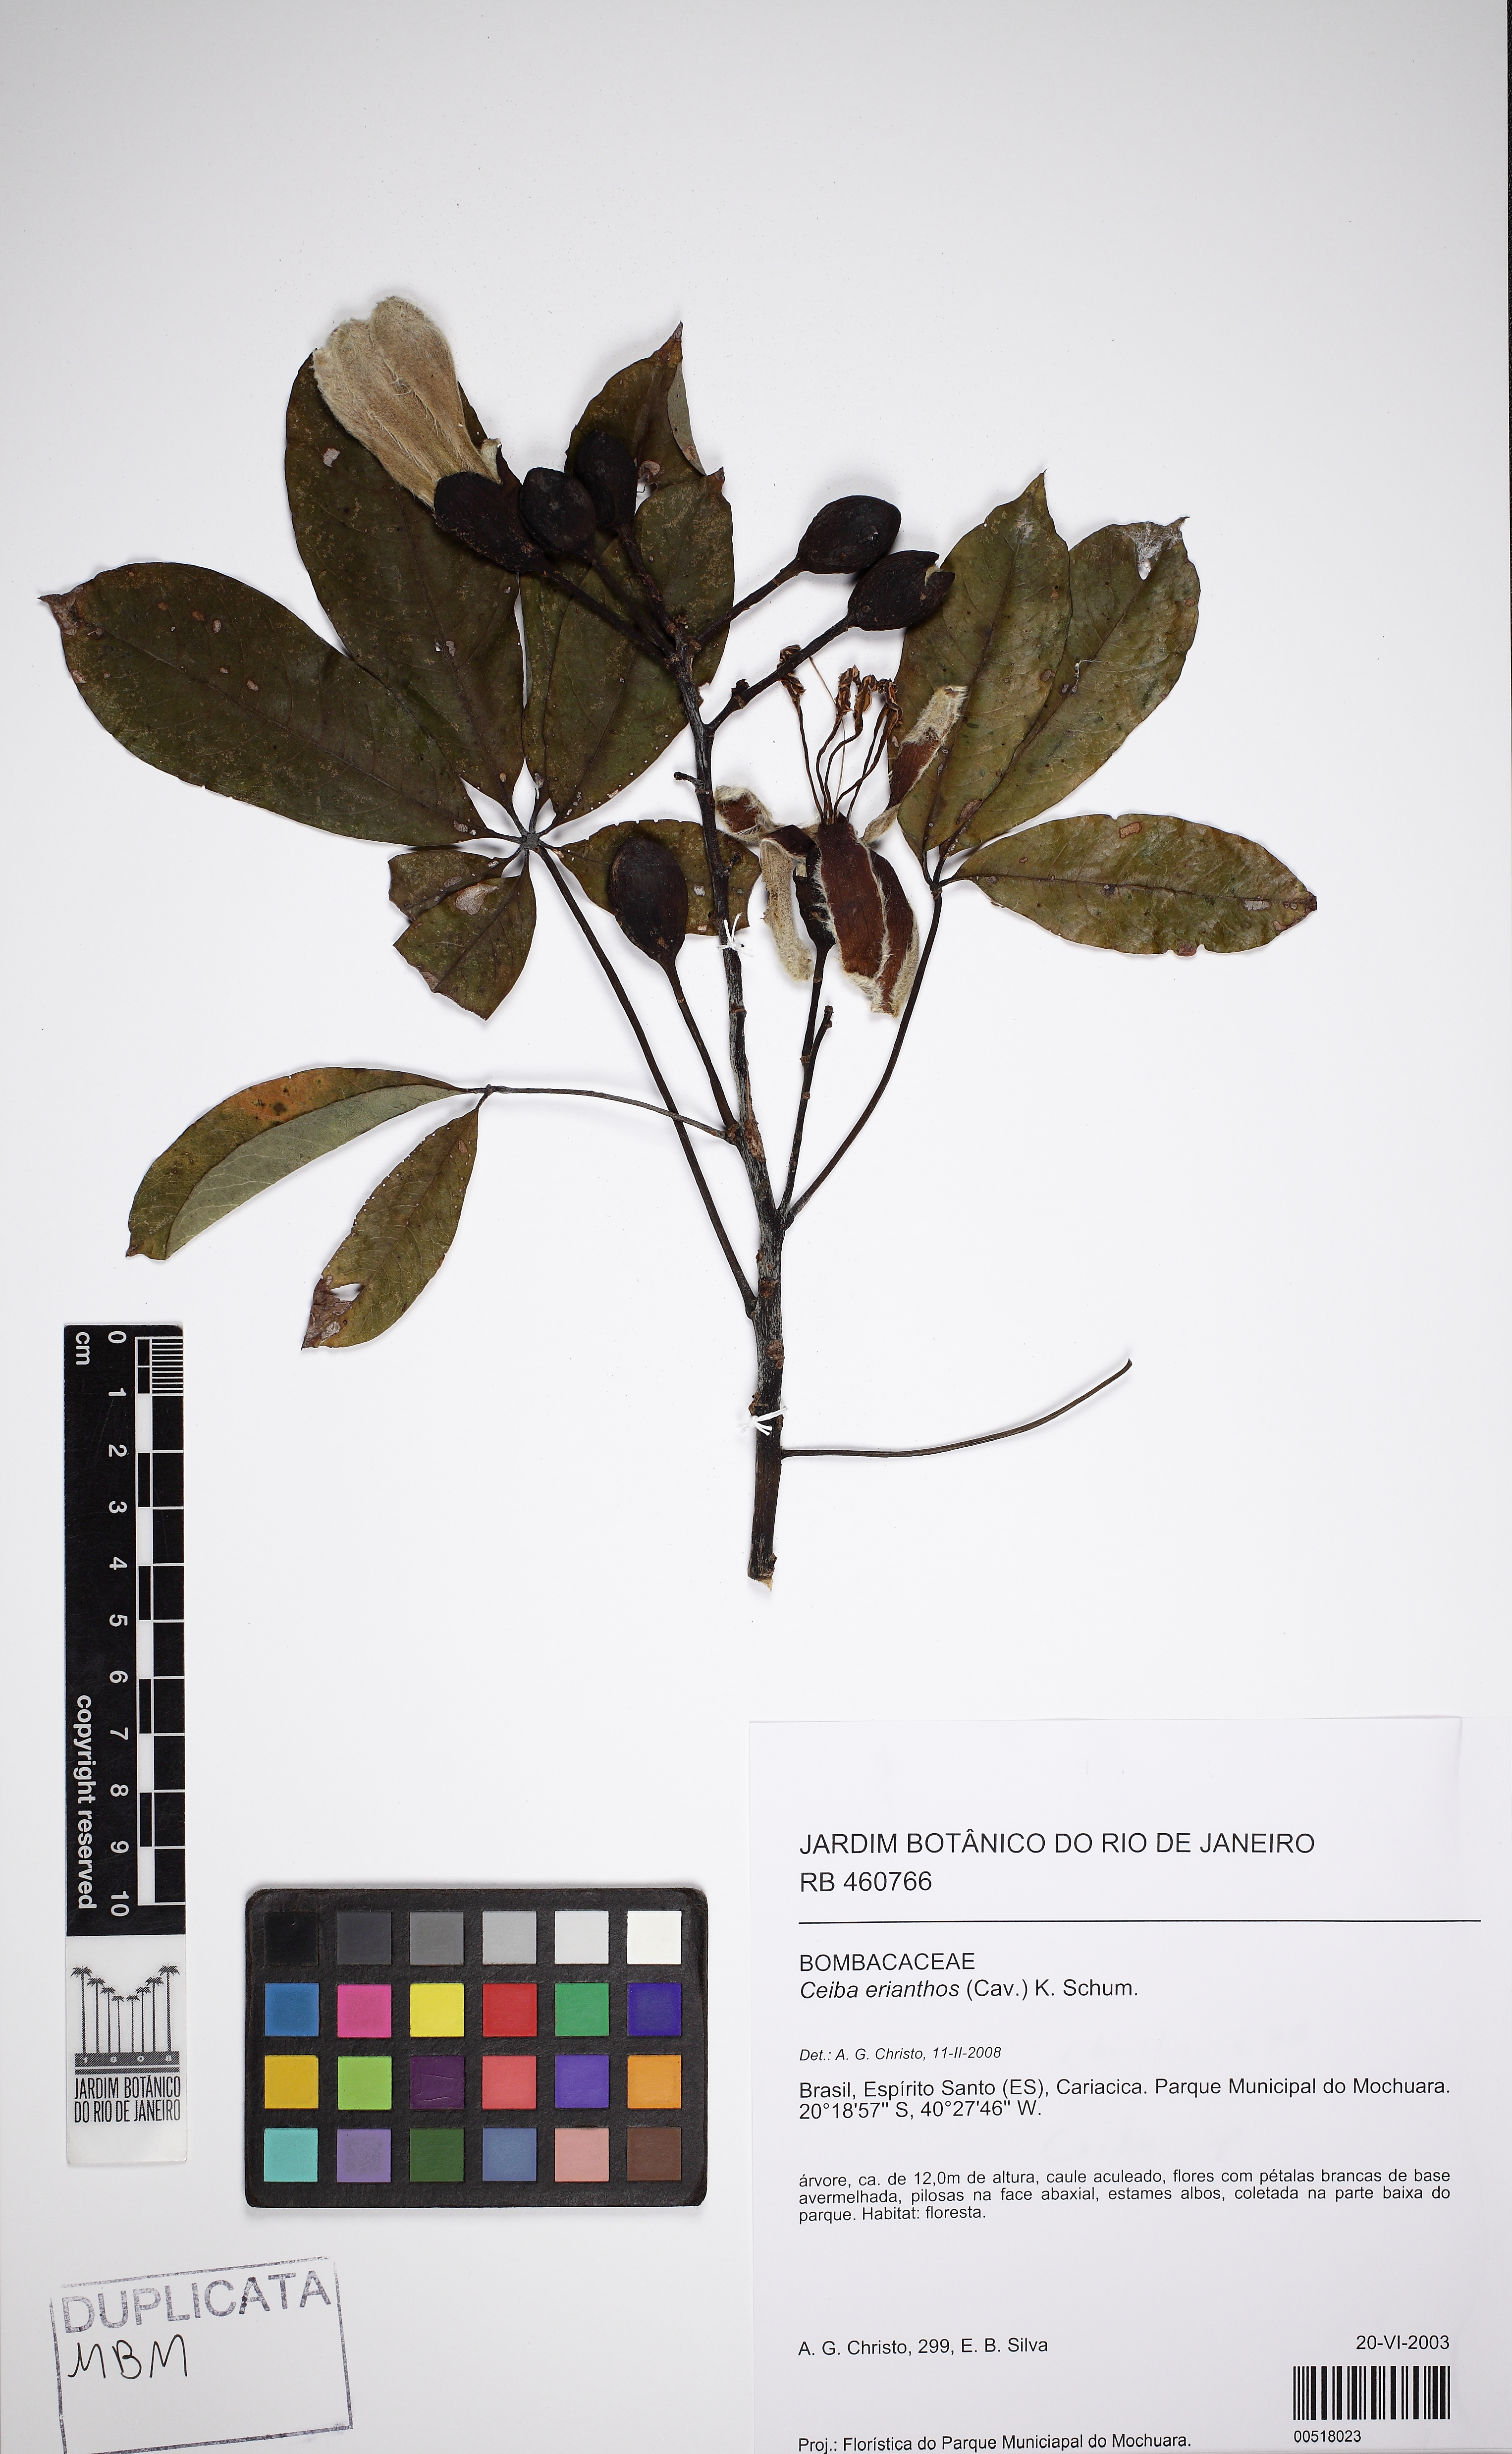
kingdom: Plantae
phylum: Tracheophyta
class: Magnoliopsida
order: Malvales
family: Malvaceae
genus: Ceiba
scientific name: Ceiba erianthos
